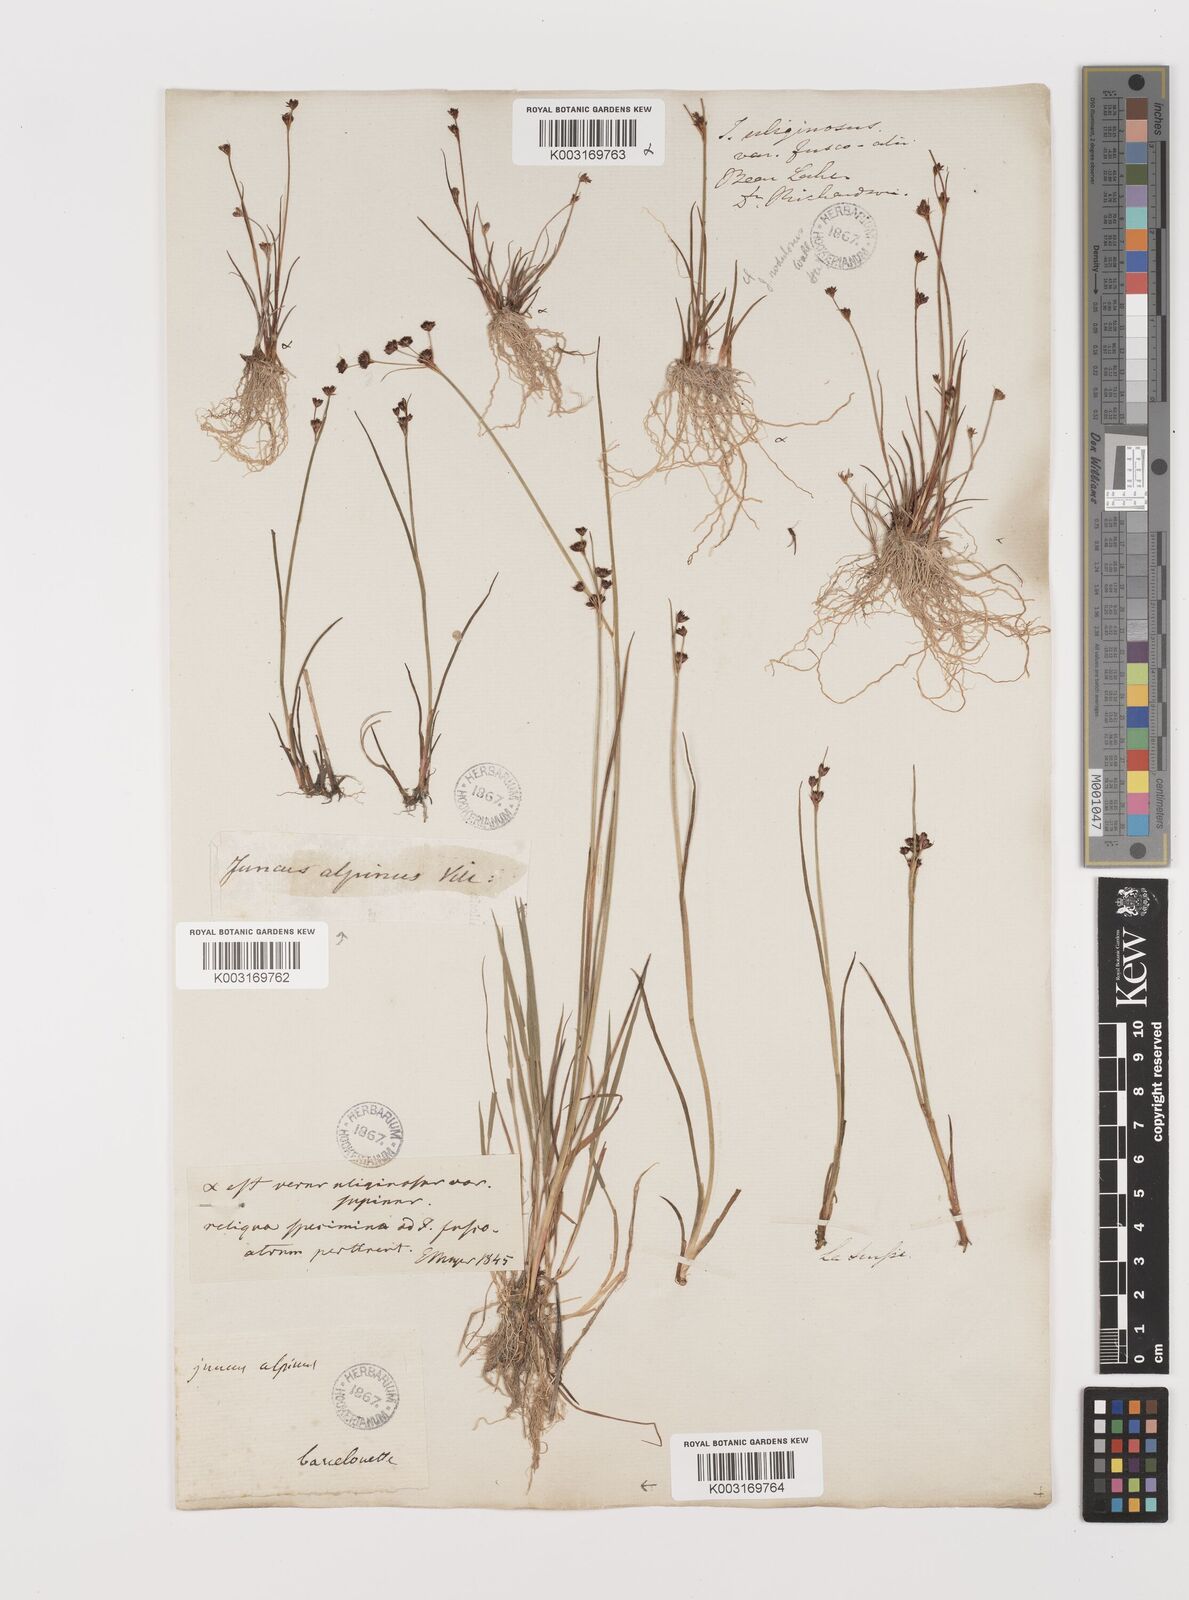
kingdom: Plantae
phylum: Tracheophyta
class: Liliopsida
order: Poales
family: Juncaceae
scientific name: Juncaceae
